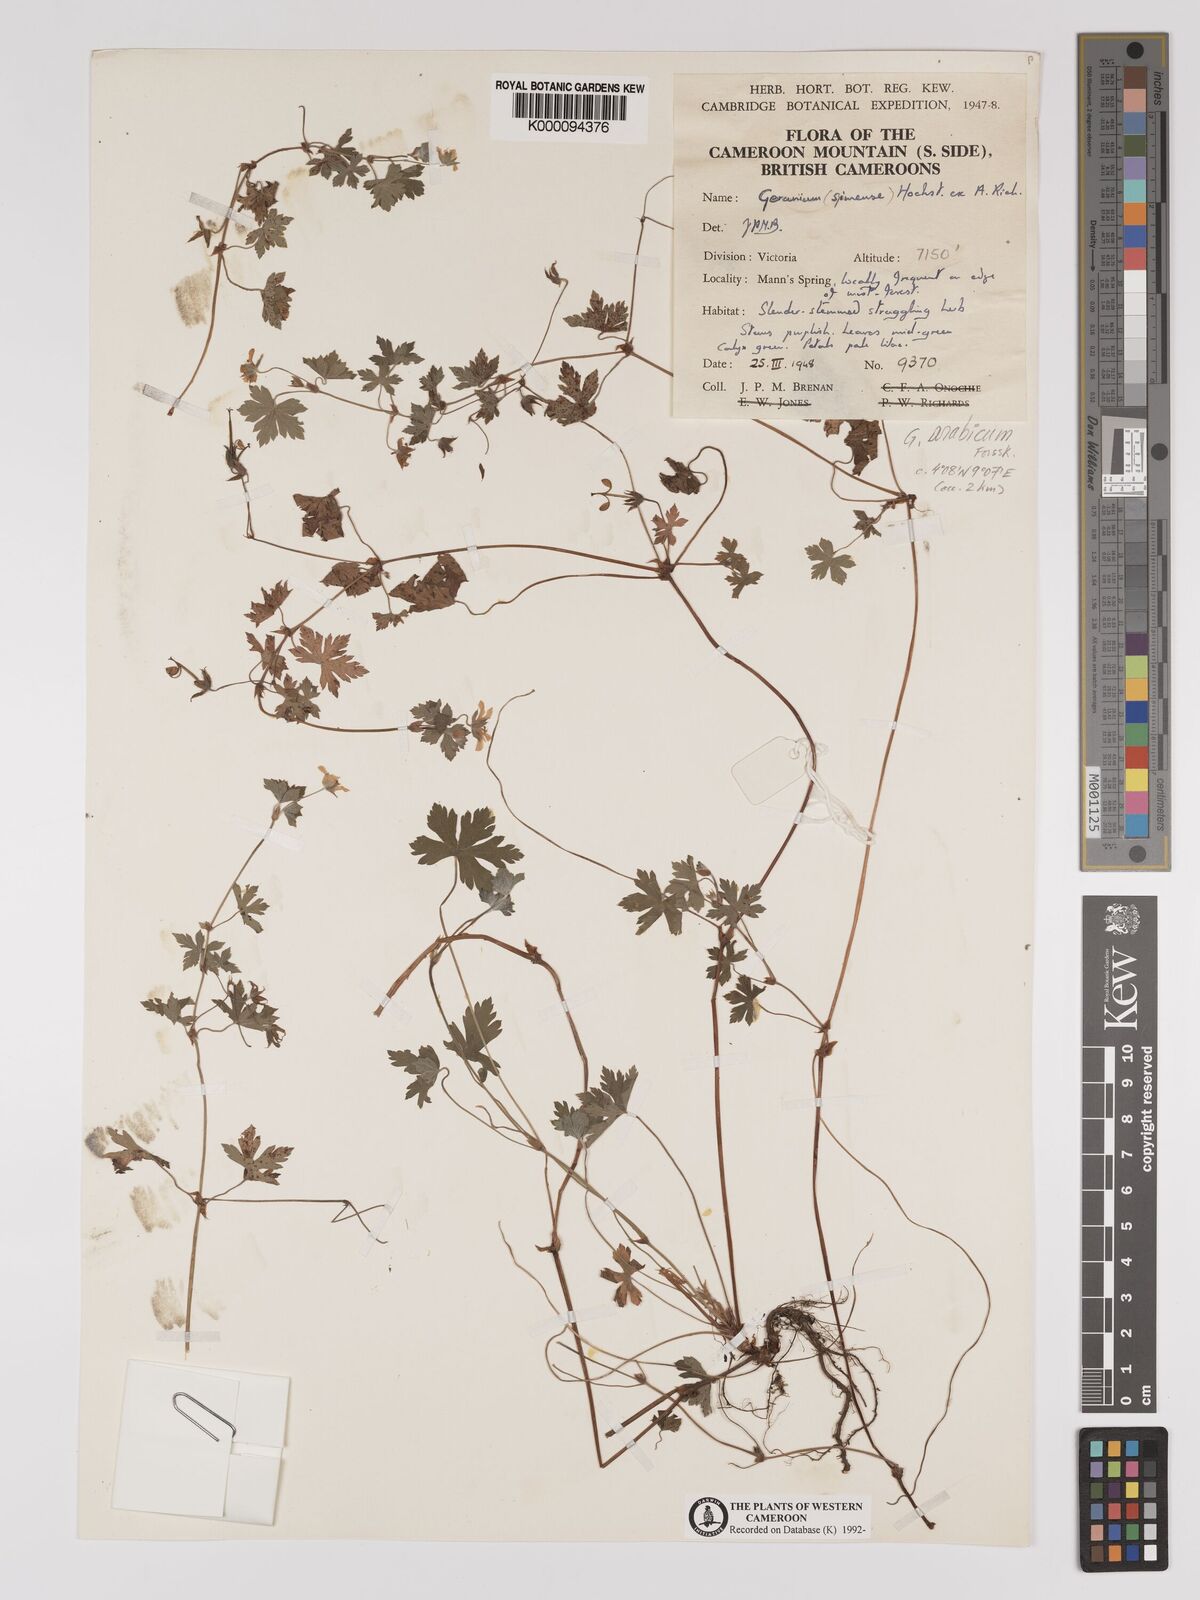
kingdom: Plantae
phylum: Tracheophyta
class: Magnoliopsida
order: Geraniales
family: Geraniaceae
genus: Geranium
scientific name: Geranium arabicum
